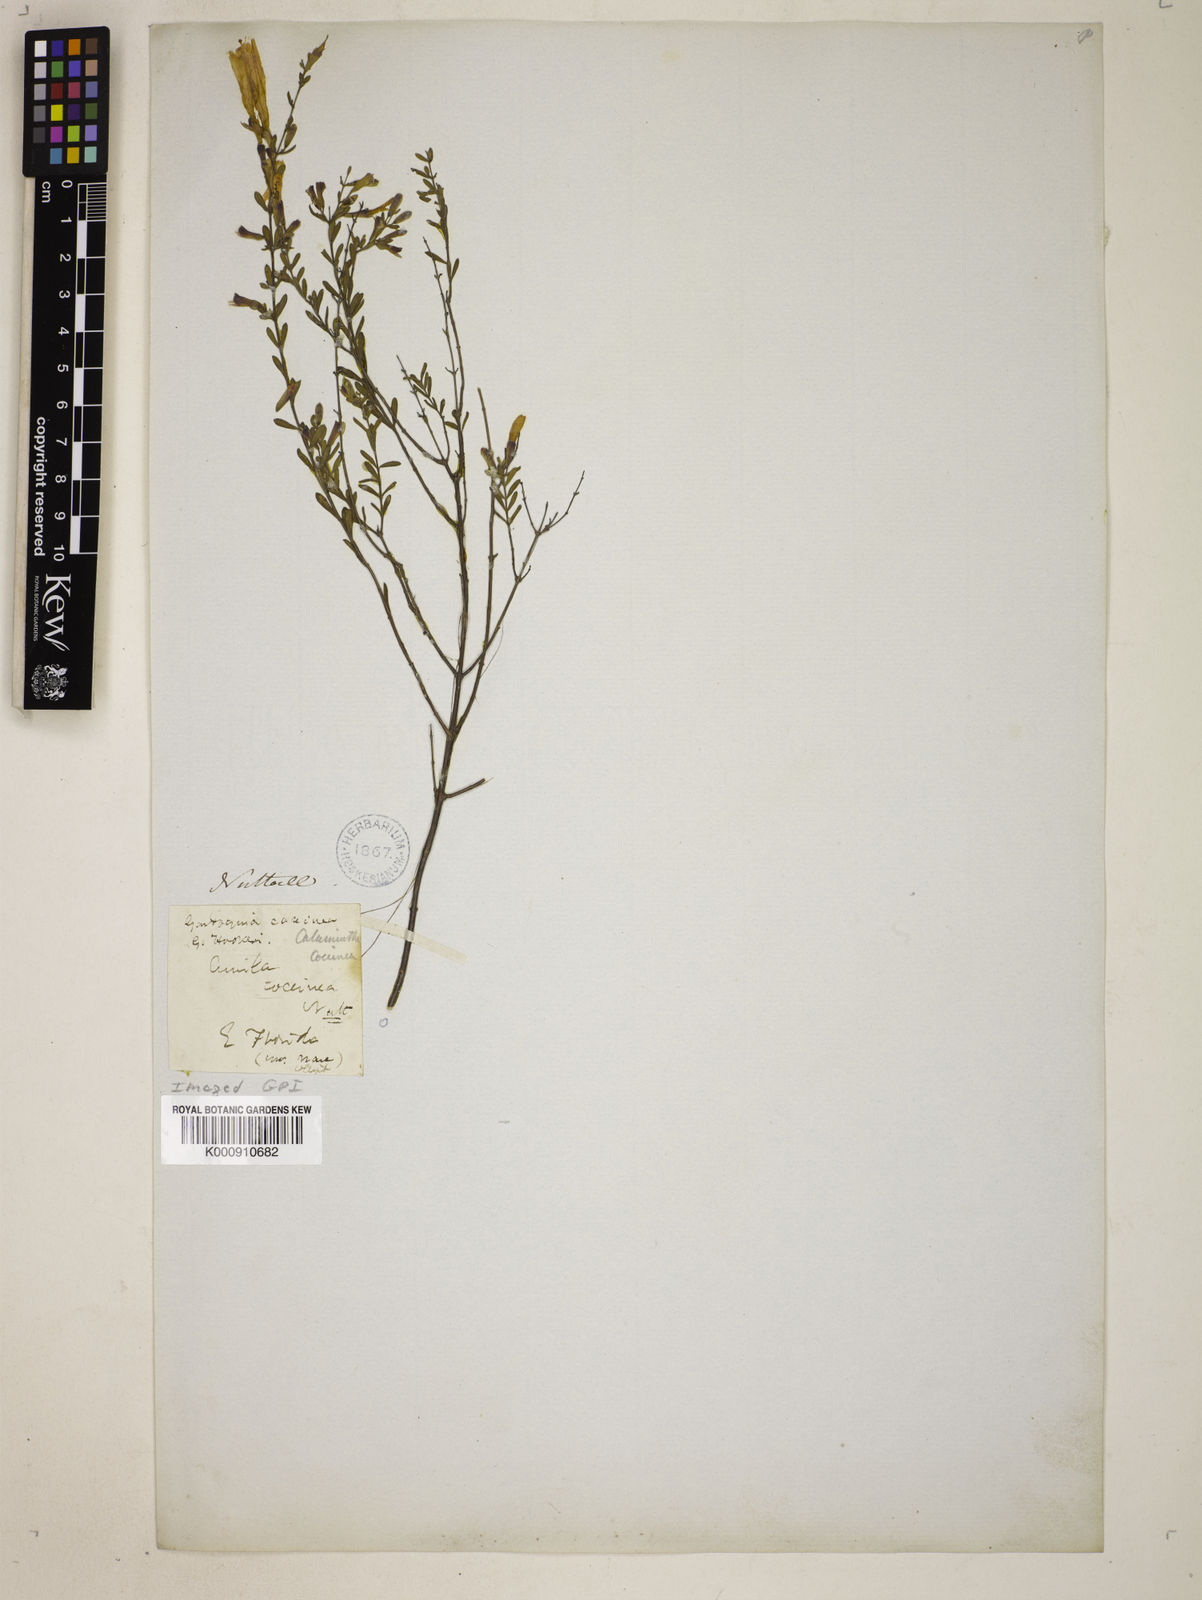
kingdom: Plantae
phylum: Tracheophyta
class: Magnoliopsida
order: Lamiales
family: Lamiaceae
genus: Clinopodium
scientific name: Clinopodium coccineum
